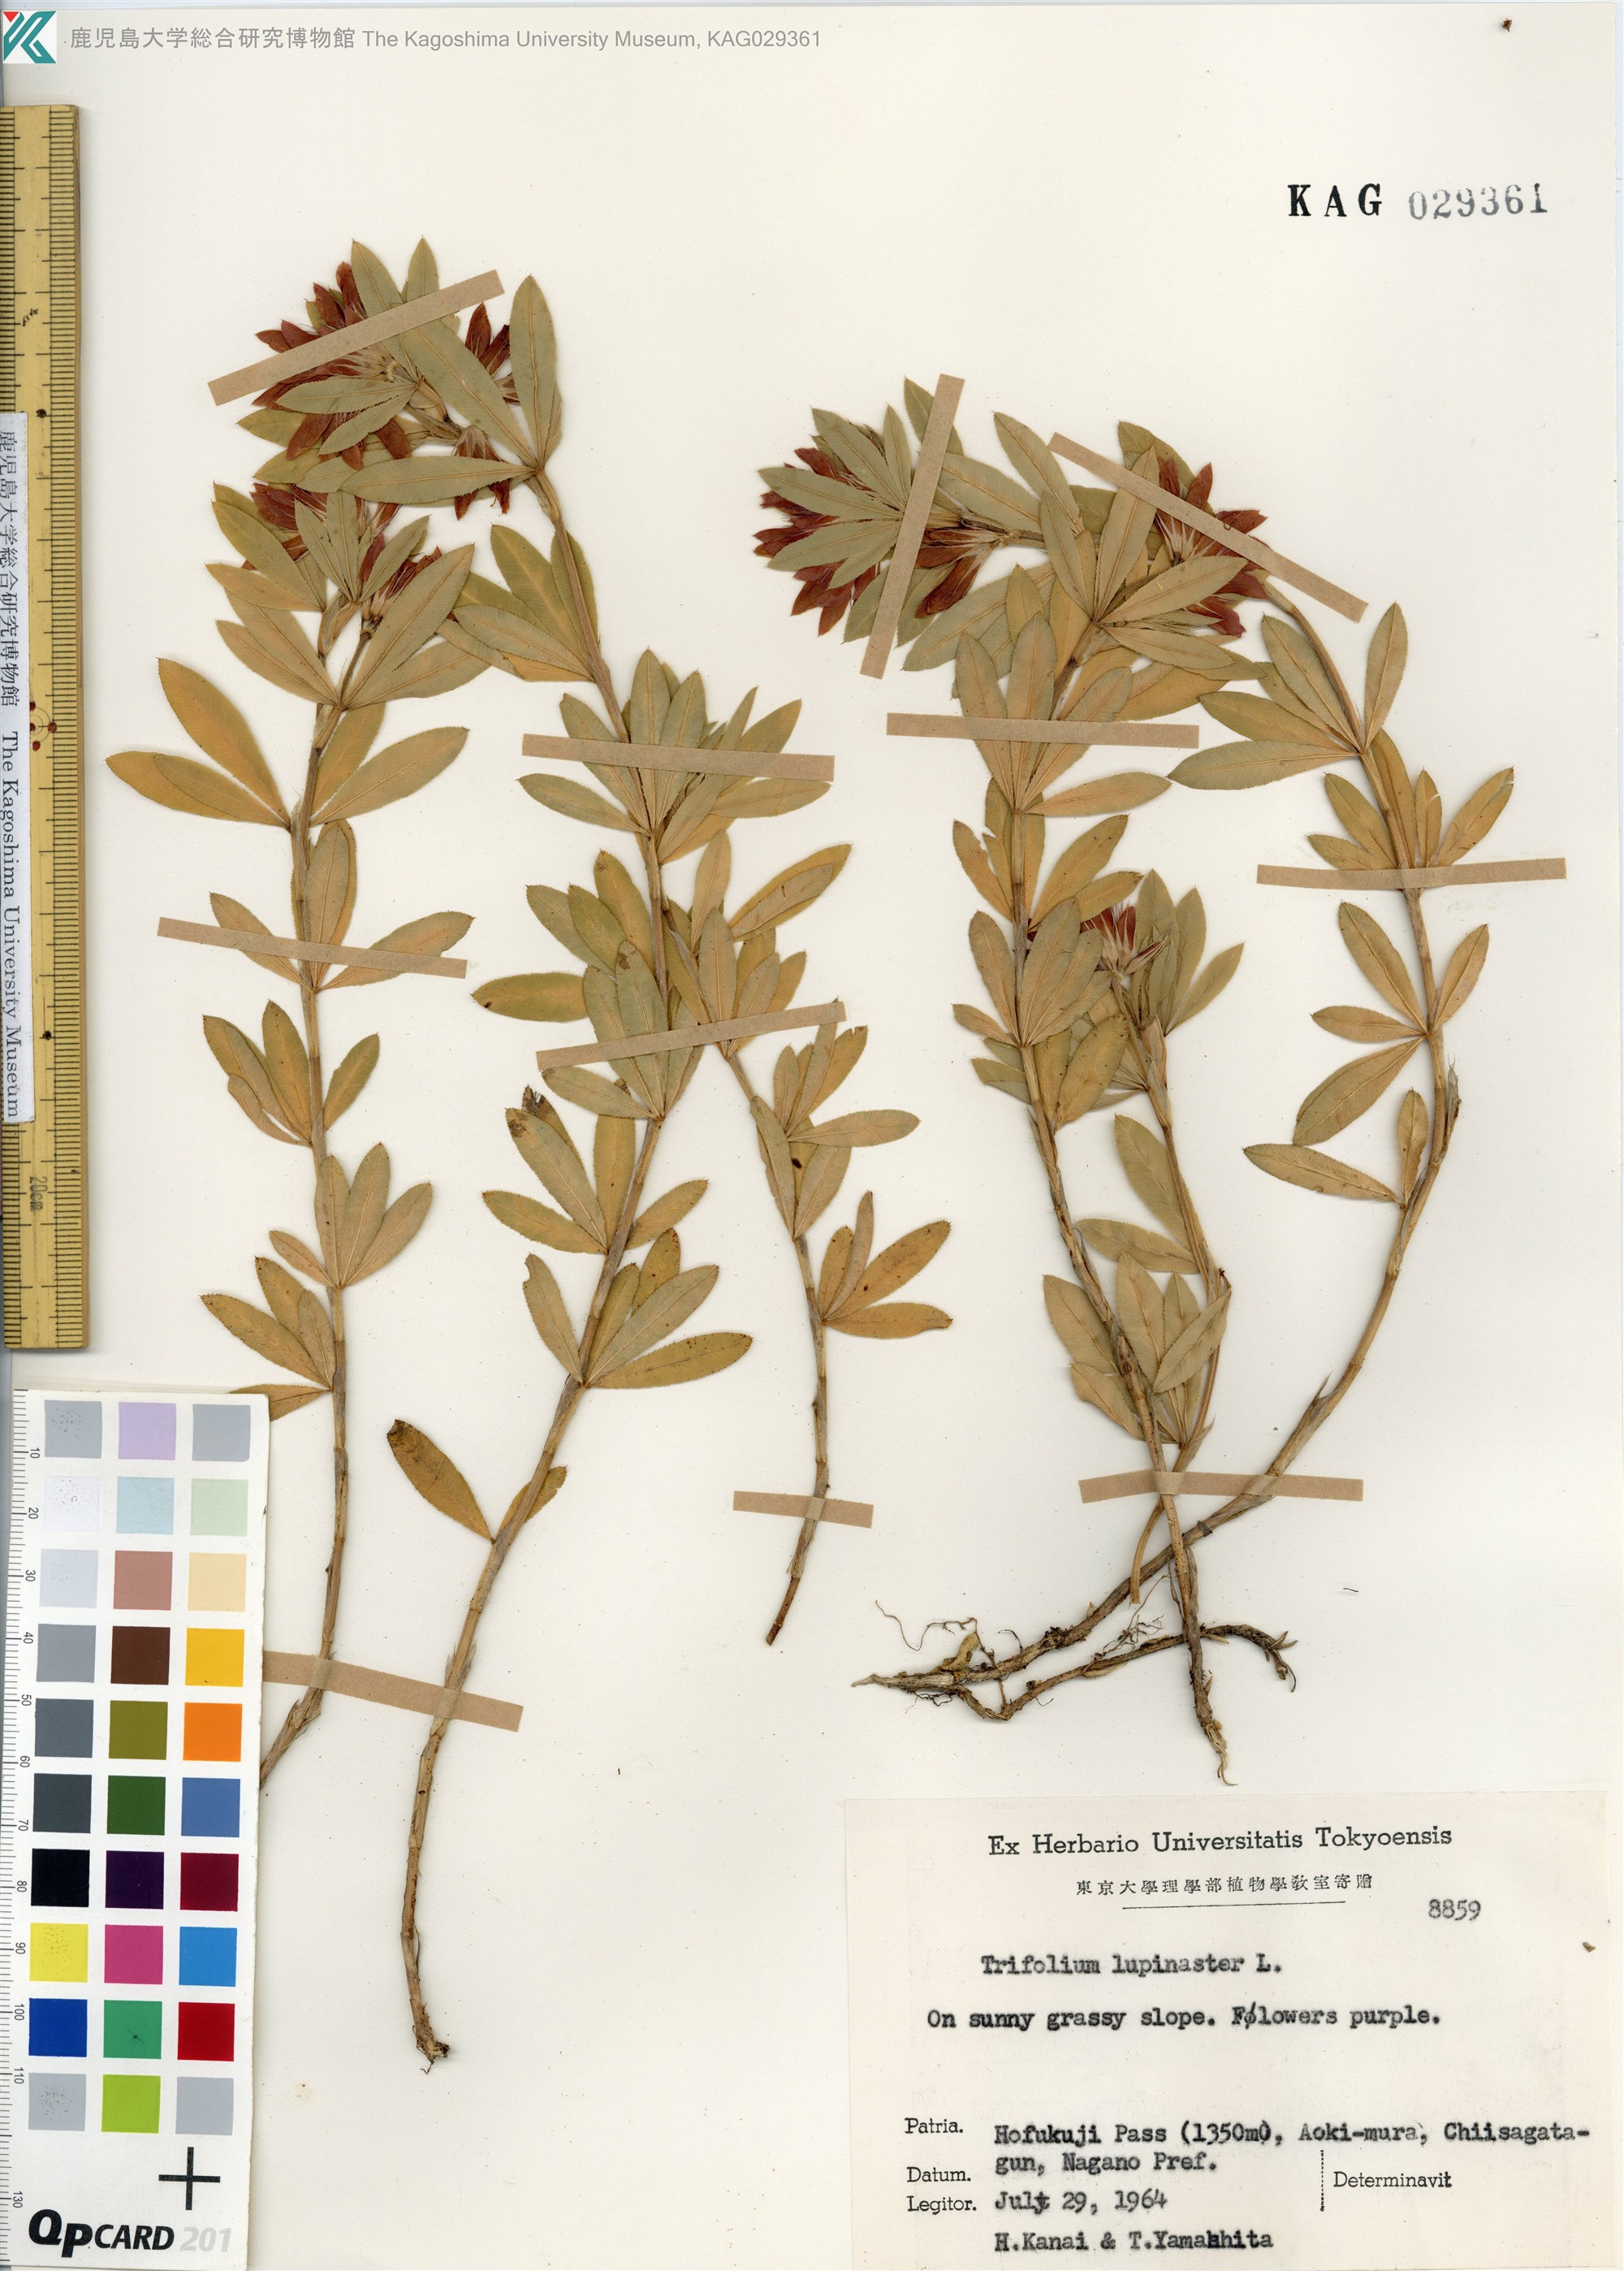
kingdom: Plantae
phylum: Tracheophyta
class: Magnoliopsida
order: Fabales
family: Fabaceae
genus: Trifolium
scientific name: Trifolium lupinaster
